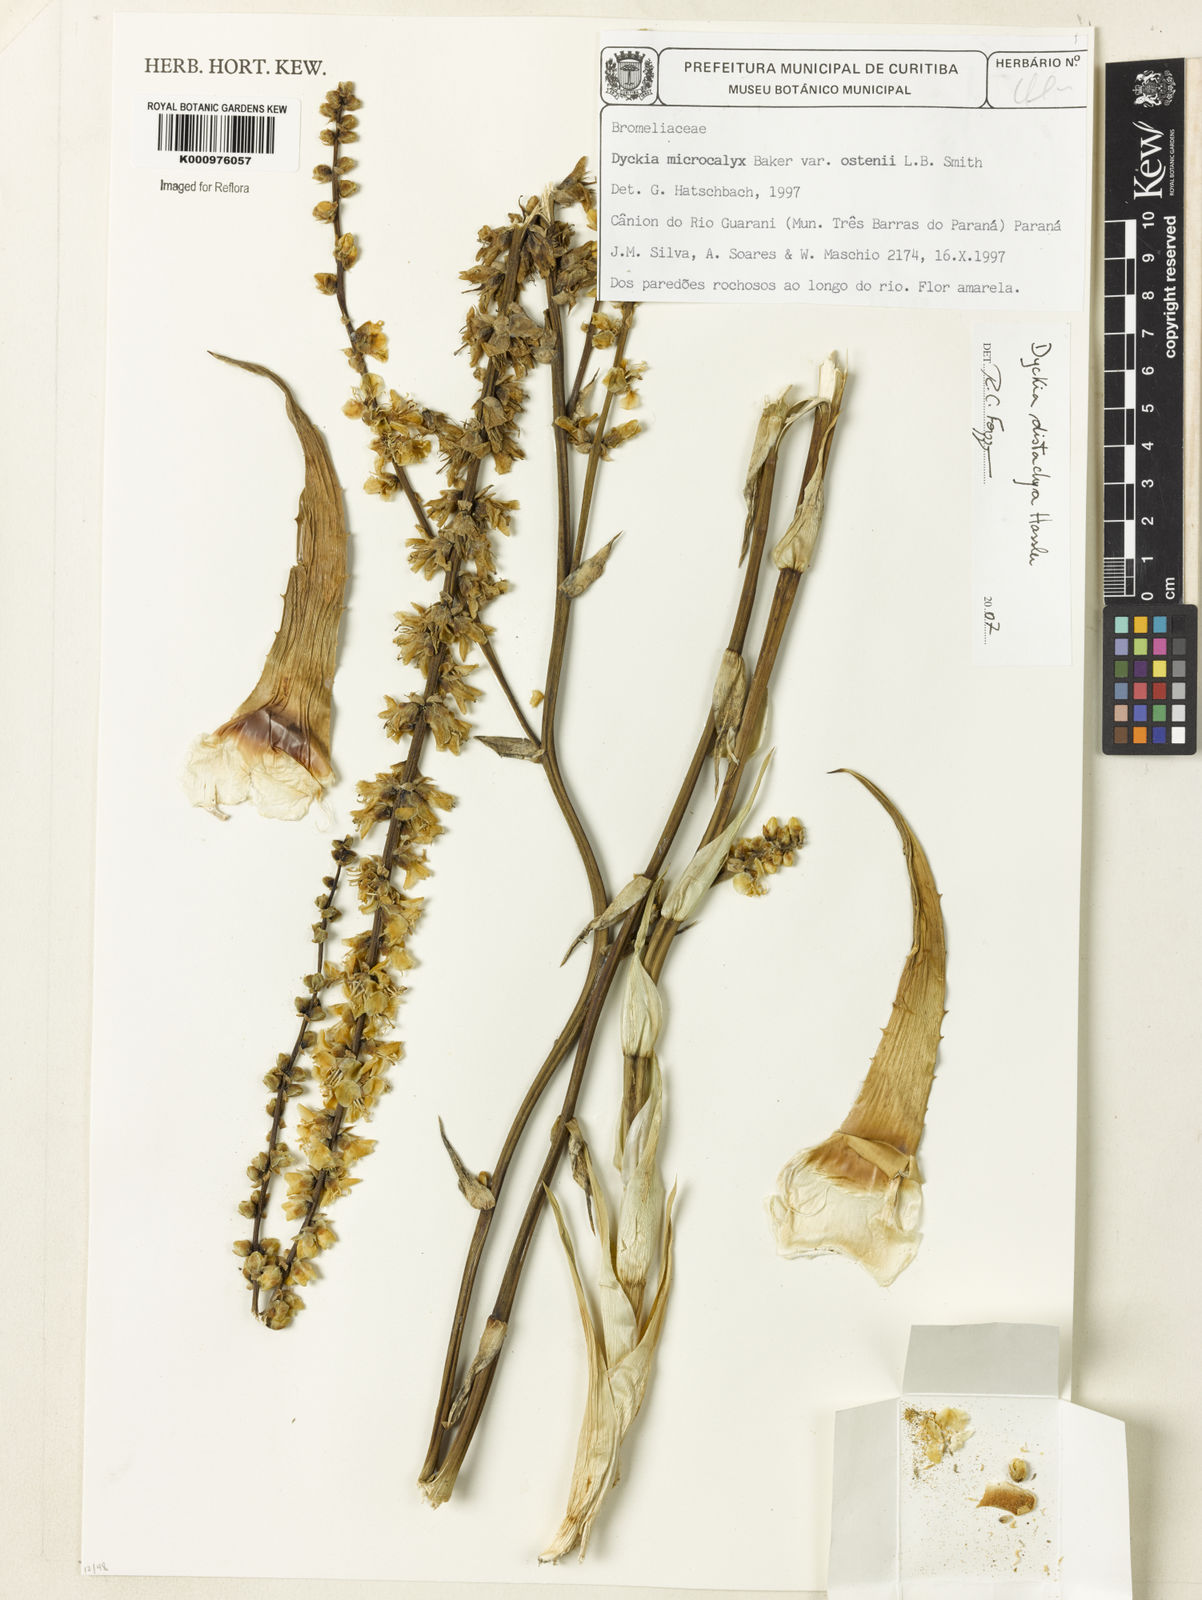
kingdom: Plantae
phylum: Tracheophyta
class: Liliopsida
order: Poales
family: Bromeliaceae
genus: Dyckia
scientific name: Dyckia distachya
